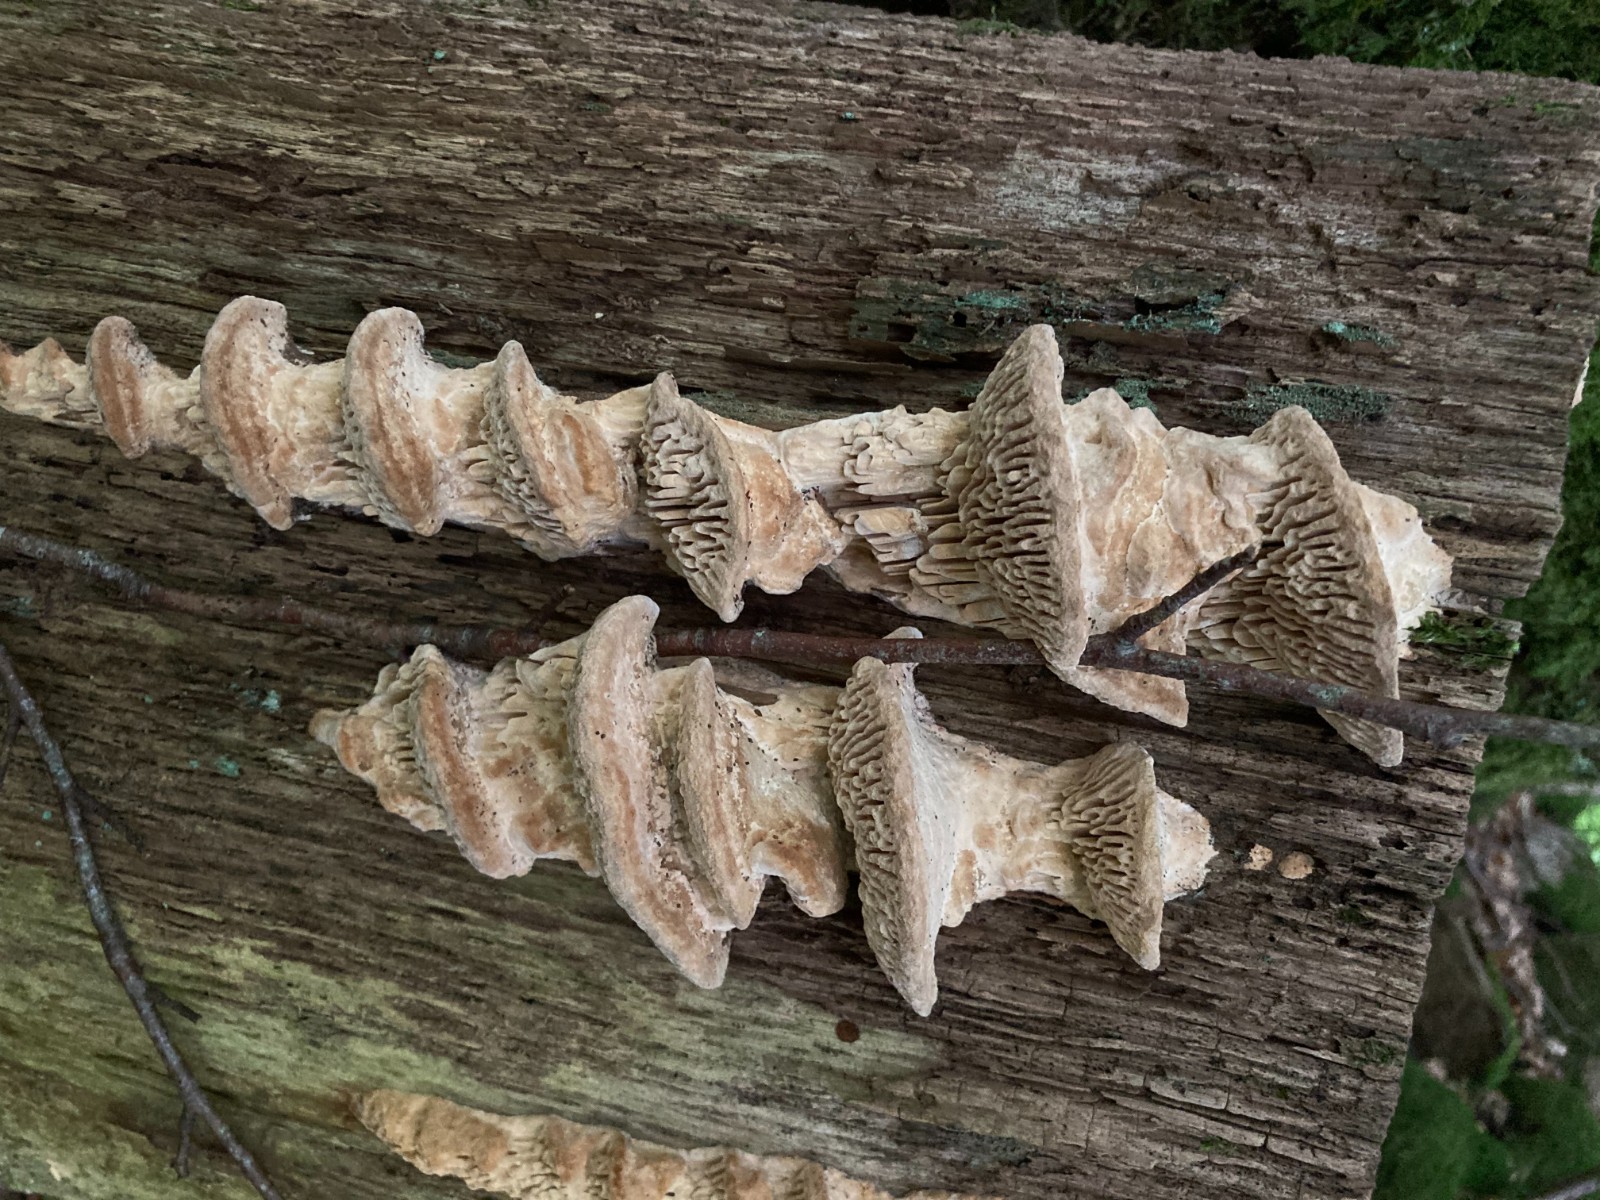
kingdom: Fungi
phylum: Basidiomycota
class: Agaricomycetes
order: Polyporales
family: Fomitopsidaceae
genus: Daedalea
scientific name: Daedalea quercina
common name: ege-labyrintsvamp
